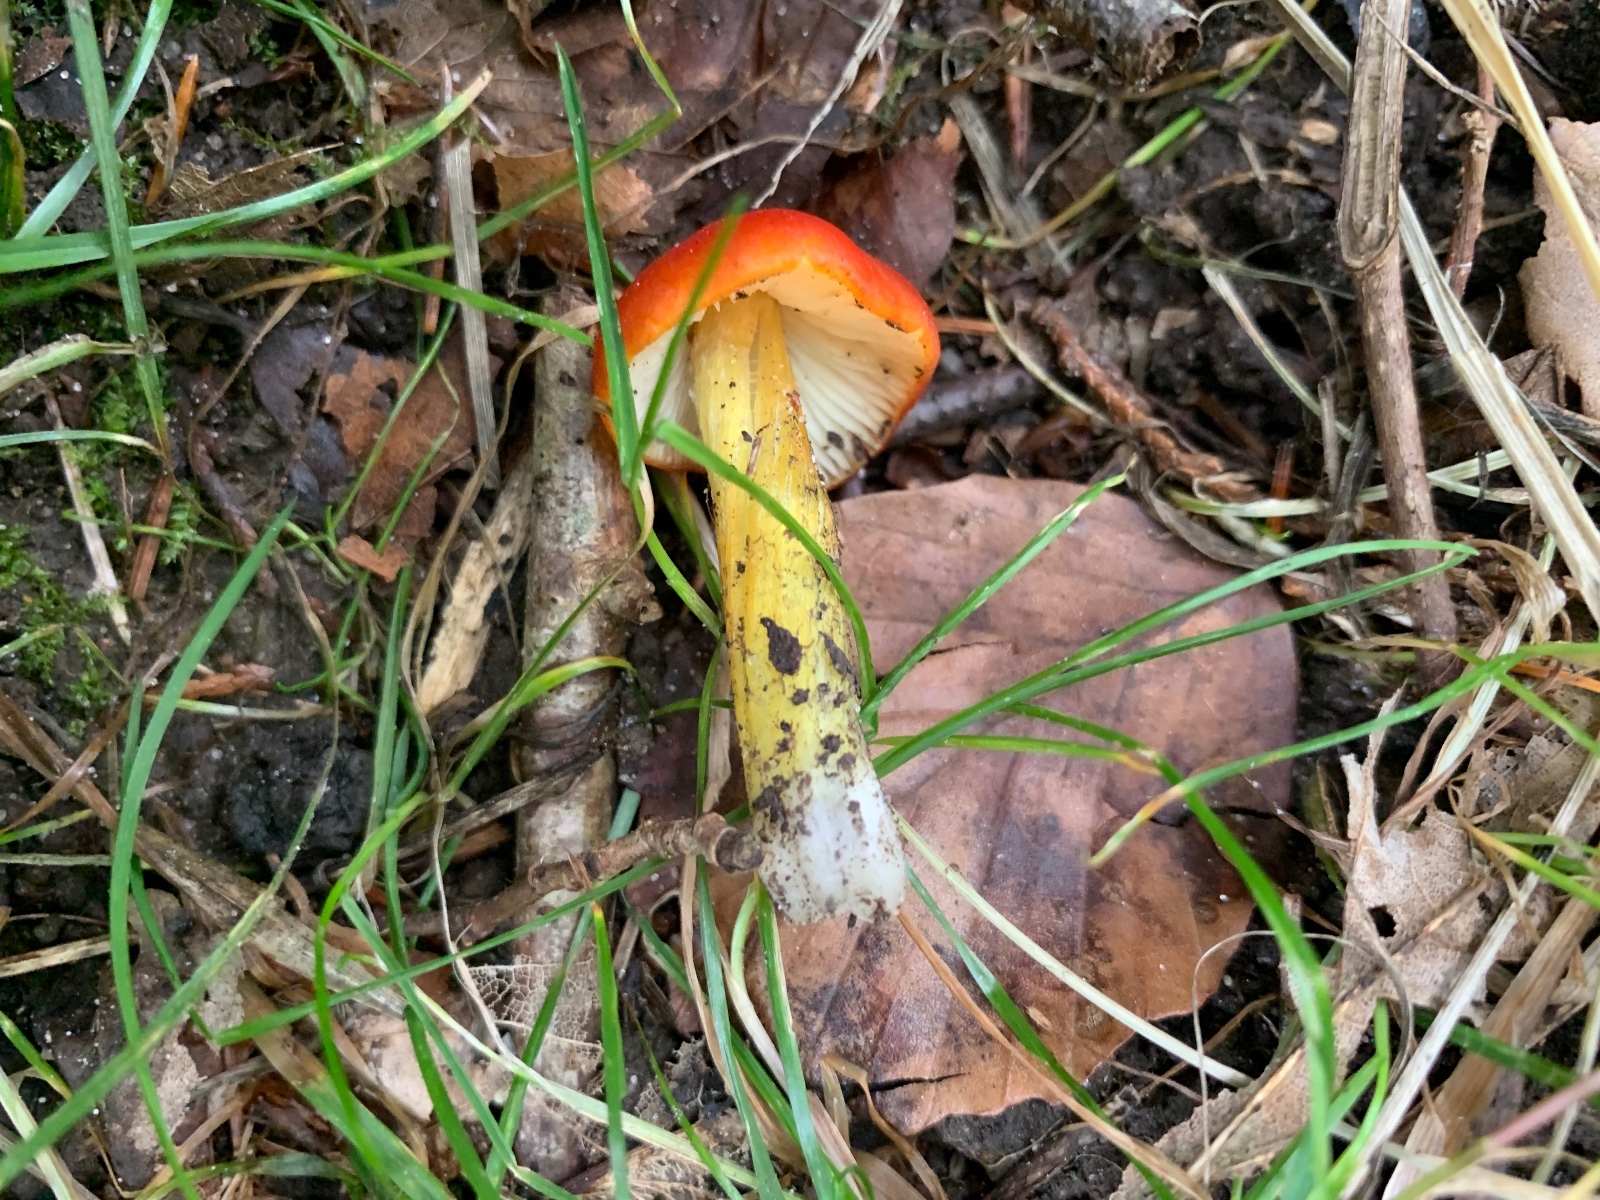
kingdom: Fungi
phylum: Basidiomycota
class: Agaricomycetes
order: Agaricales
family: Hygrophoraceae
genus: Hygrocybe
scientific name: Hygrocybe conica
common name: kegle-vokshat
